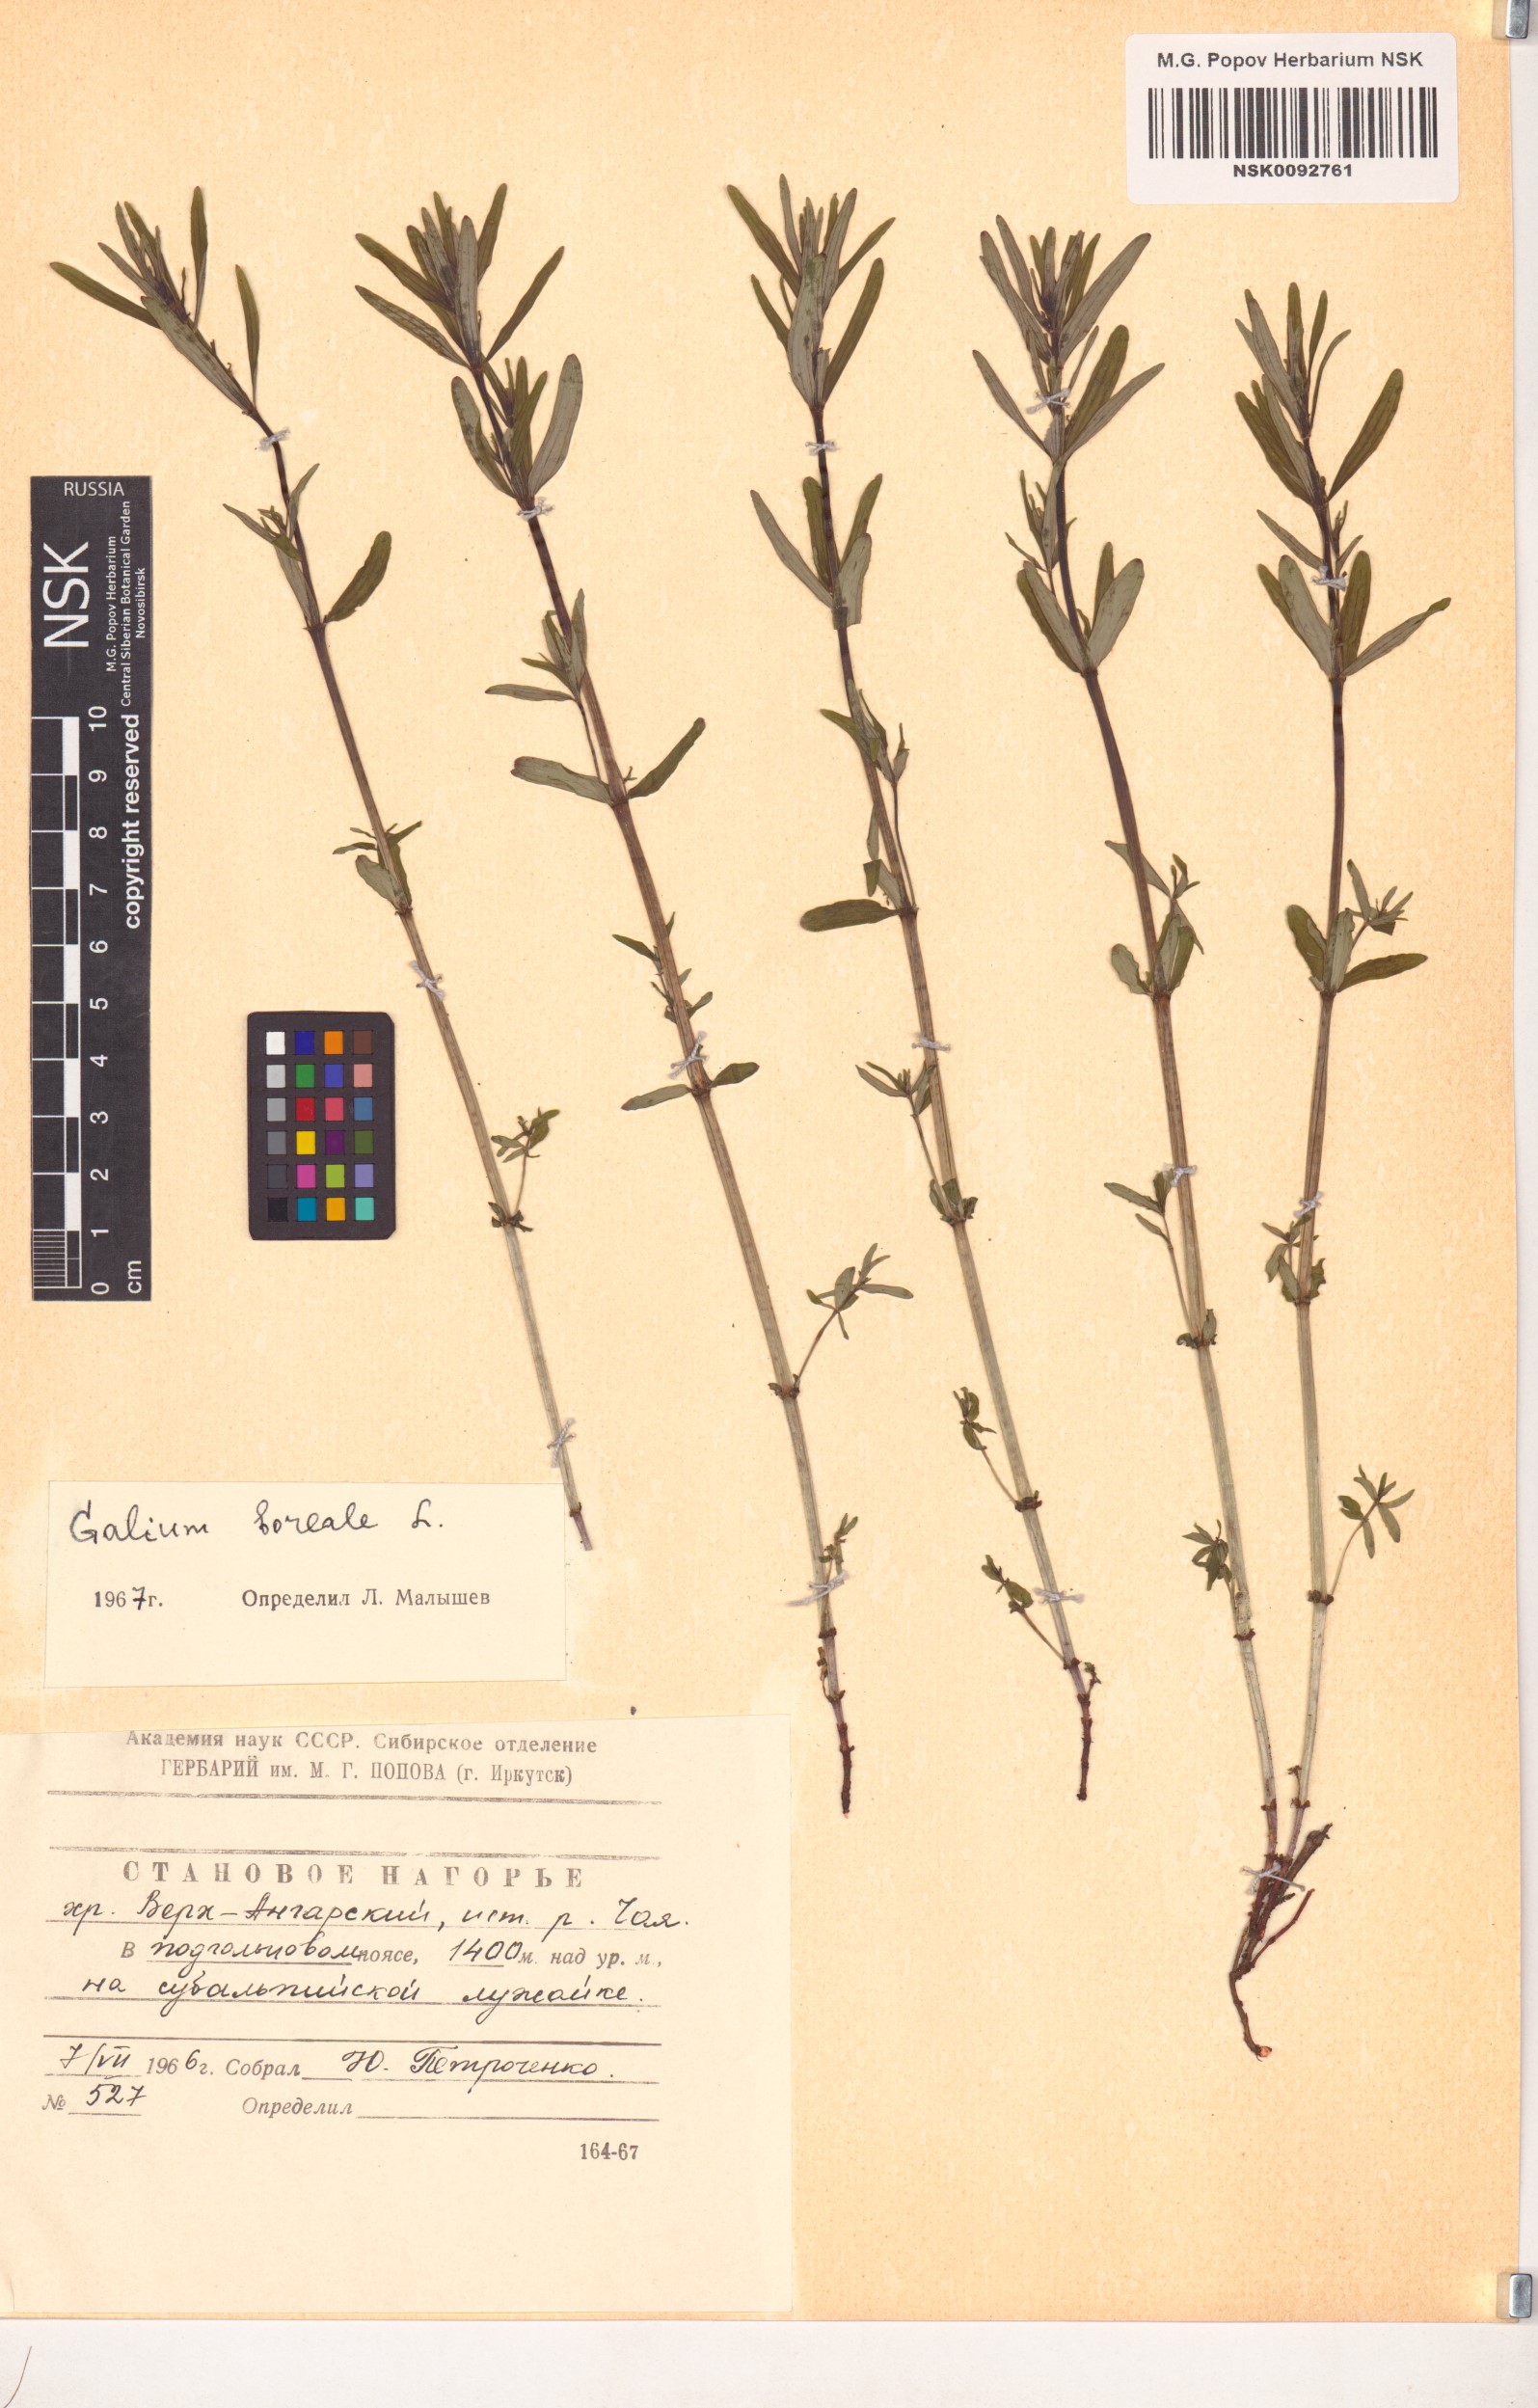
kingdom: Plantae
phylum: Tracheophyta
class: Magnoliopsida
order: Gentianales
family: Rubiaceae
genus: Galium
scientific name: Galium boreale
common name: Northern bedstraw
